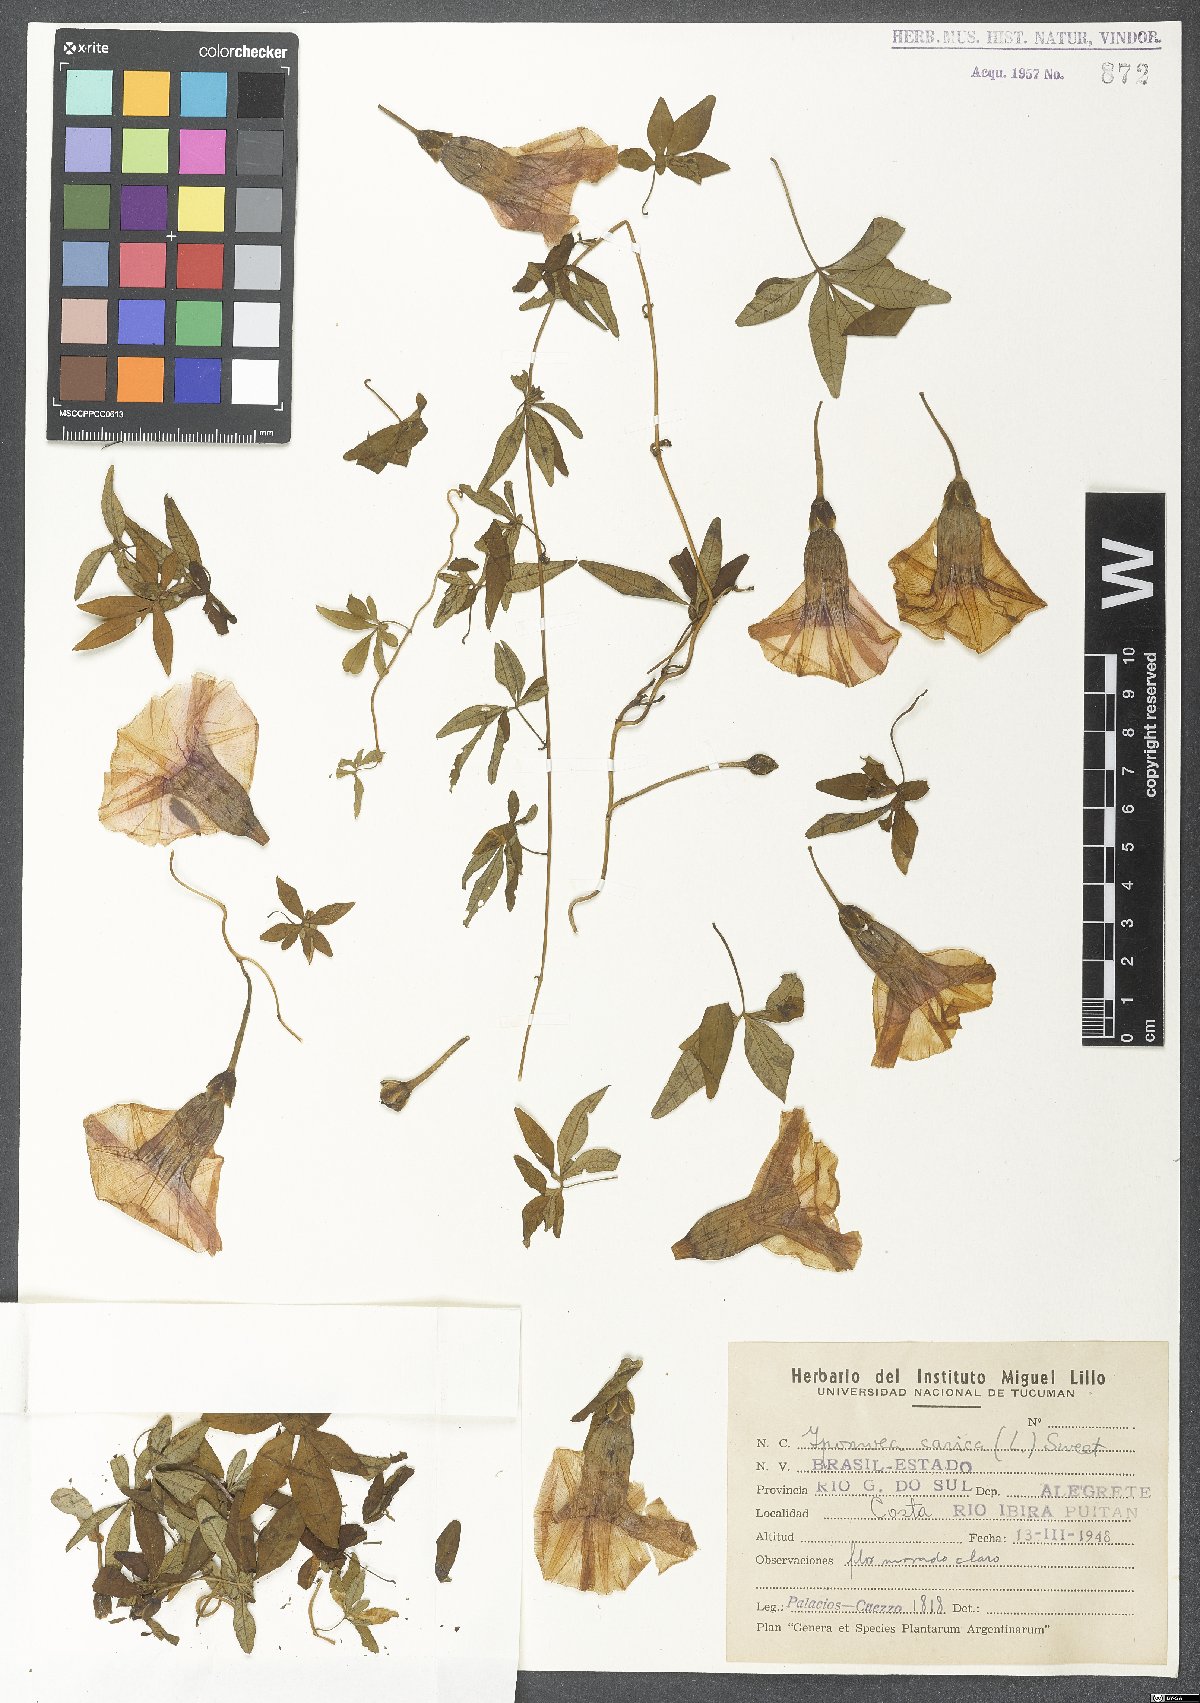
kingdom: Plantae
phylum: Tracheophyta
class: Magnoliopsida
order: Solanales
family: Convolvulaceae
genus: Ipomoea
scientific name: Ipomoea cairica
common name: Mile a minute vine
